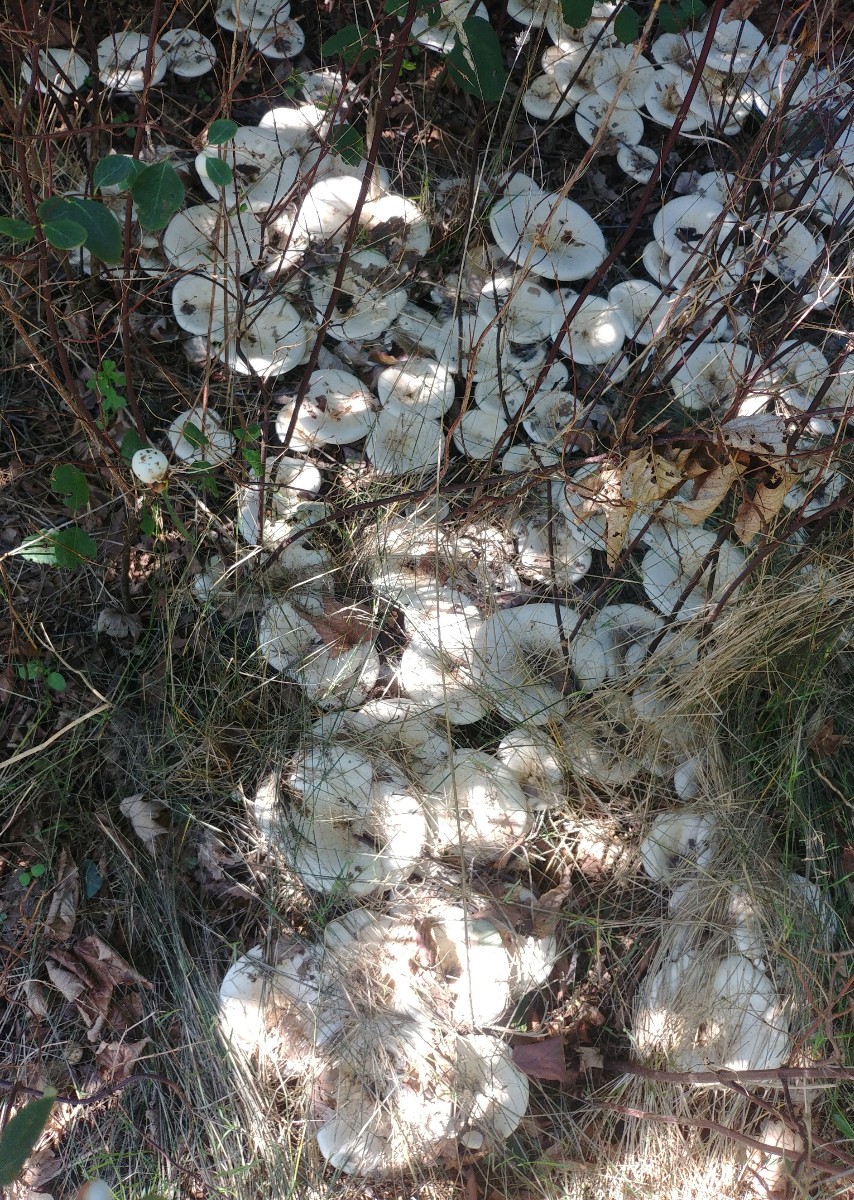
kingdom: Fungi
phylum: Basidiomycota
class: Agaricomycetes
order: Agaricales
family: Tricholomataceae
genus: Aspropaxillus
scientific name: Aspropaxillus giganteus
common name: kæmpe-tragtridderhat
